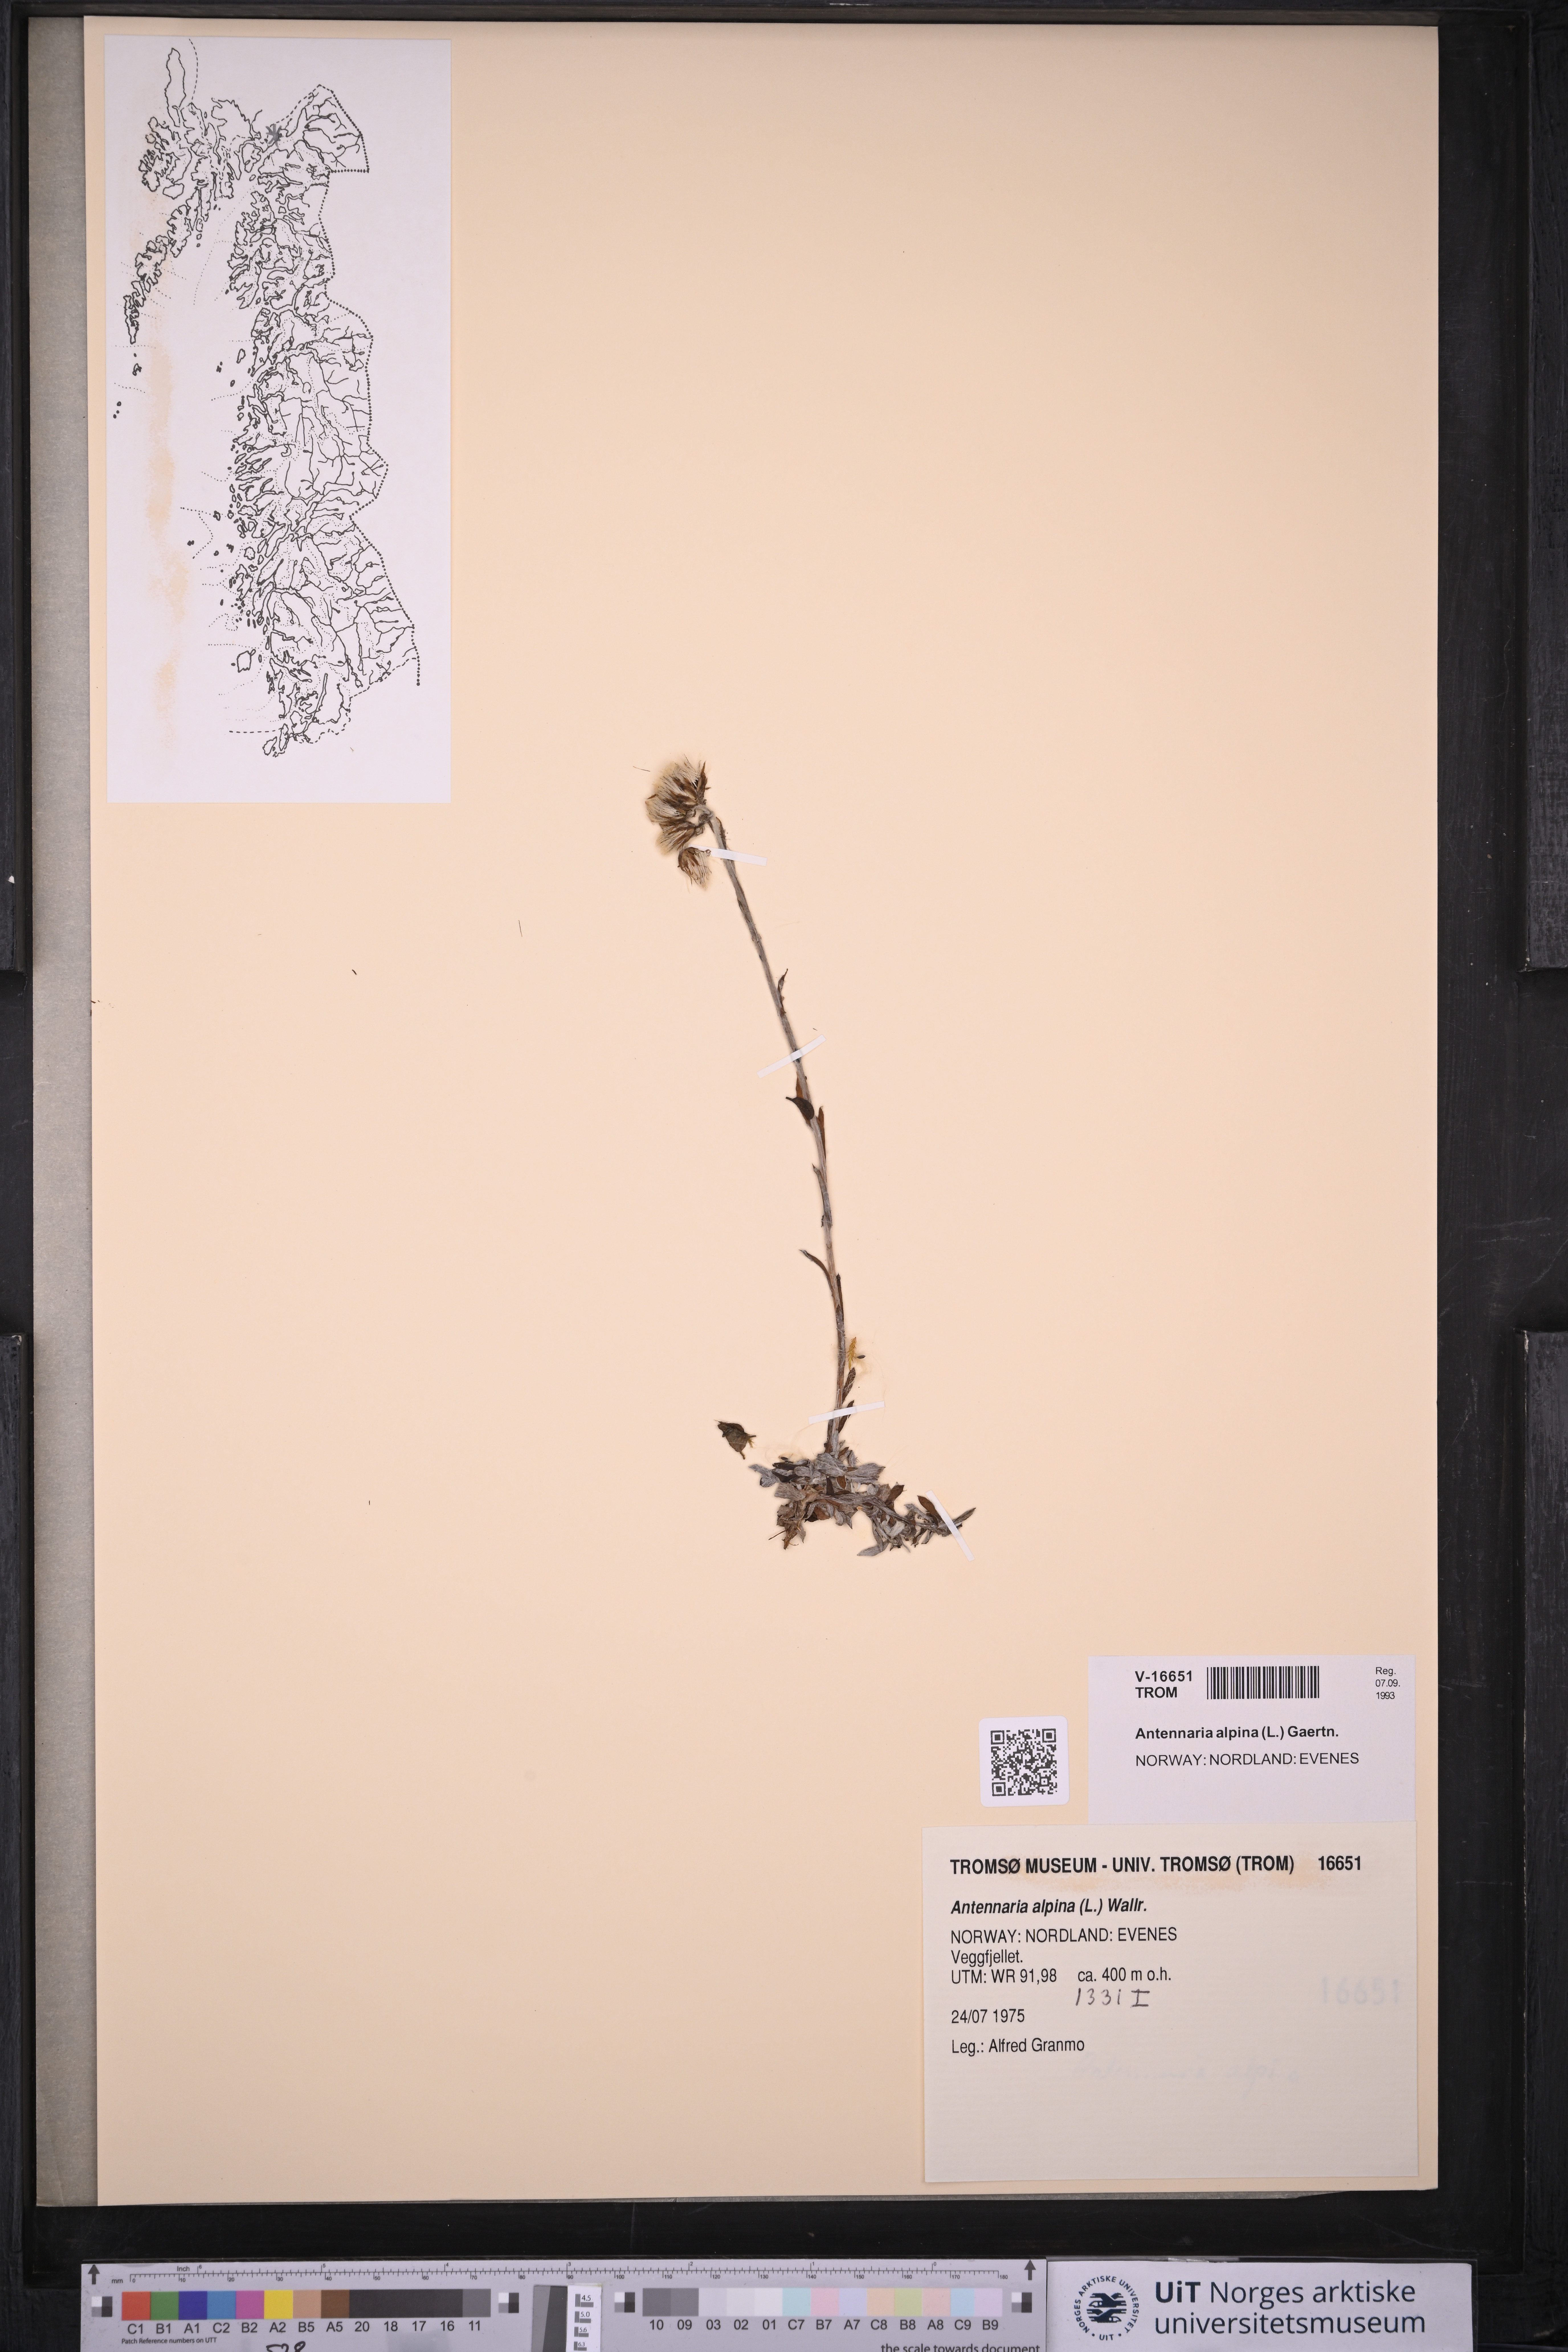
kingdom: Plantae
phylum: Tracheophyta
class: Magnoliopsida
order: Asterales
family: Asteraceae
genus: Antennaria
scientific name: Antennaria alpina
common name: Alpine pussytoes
